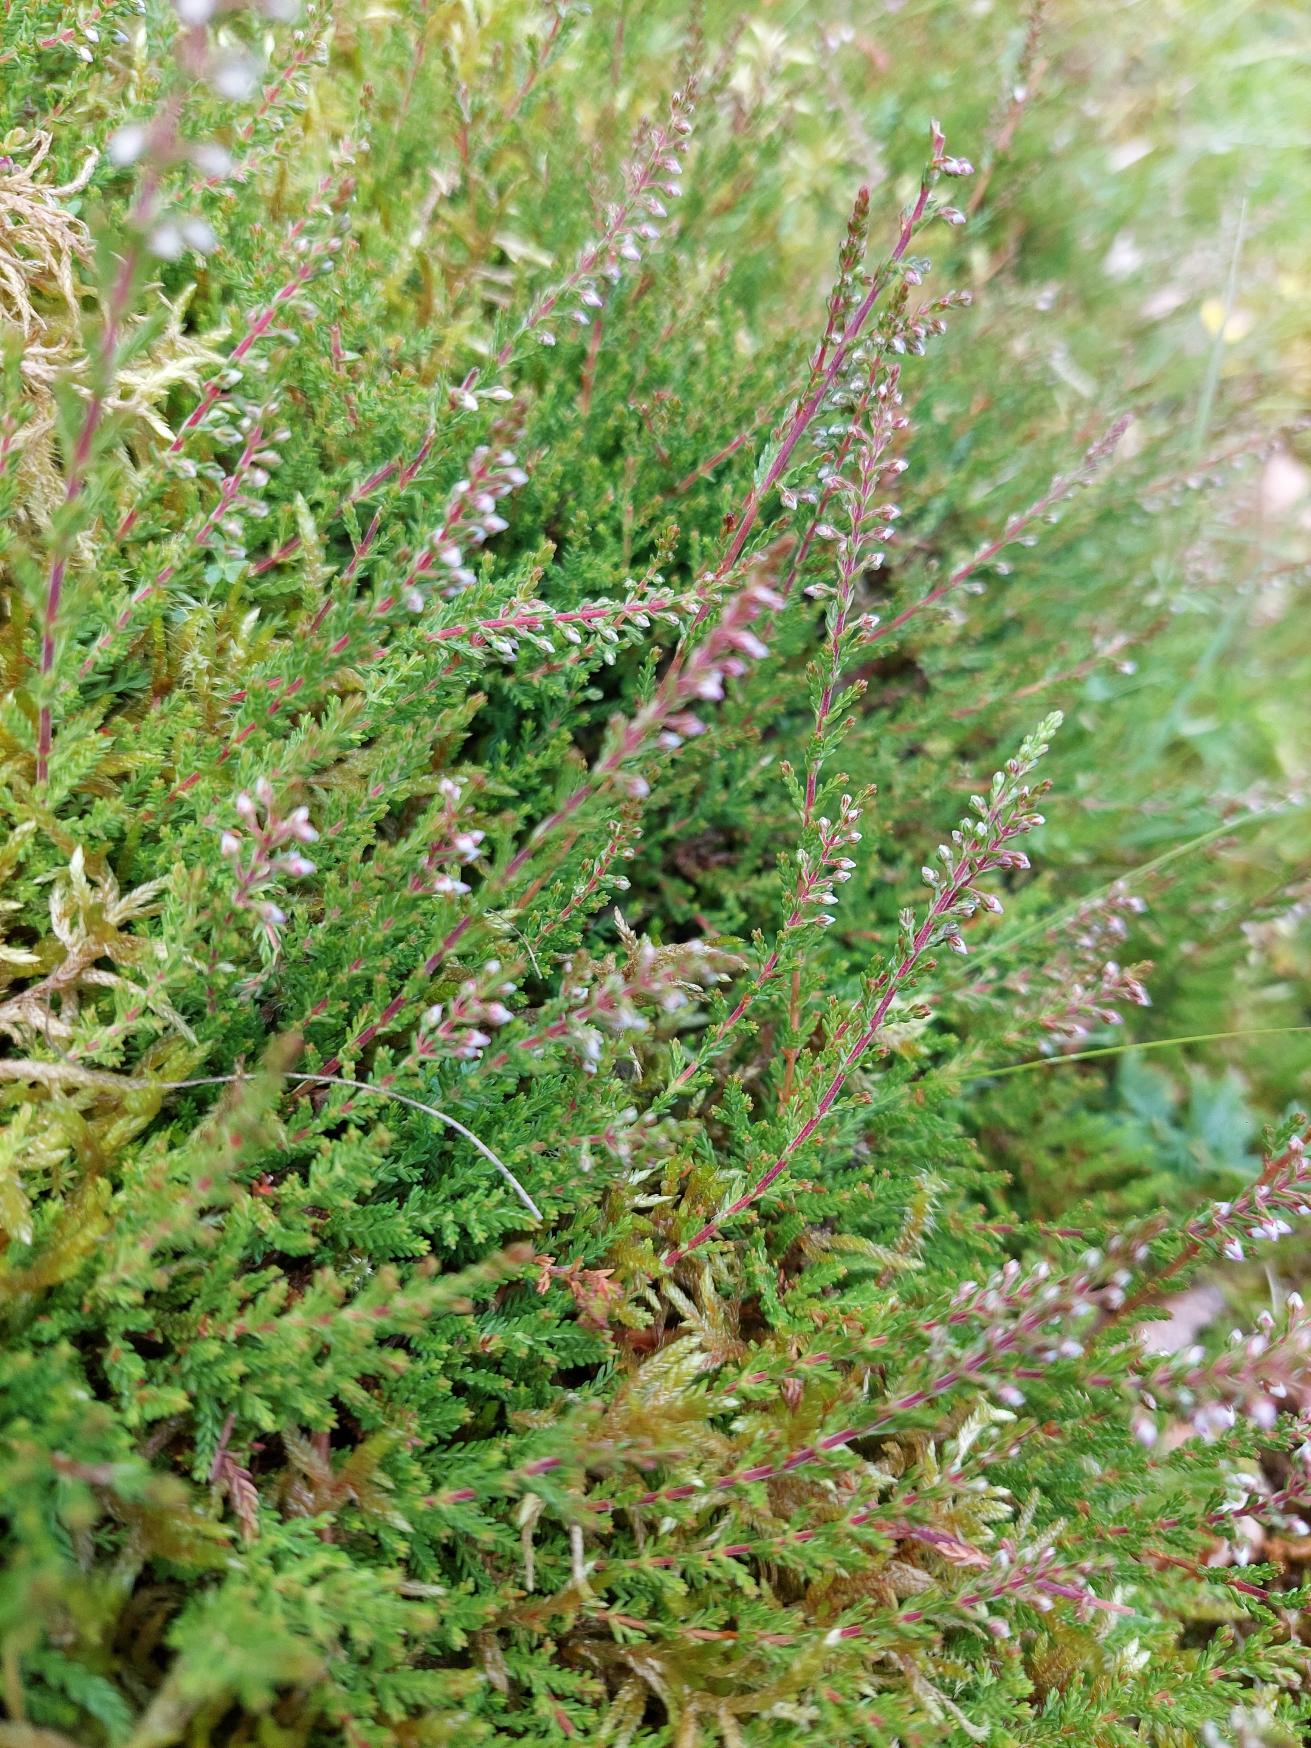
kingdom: Plantae
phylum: Tracheophyta
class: Magnoliopsida
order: Ericales
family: Ericaceae
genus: Calluna
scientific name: Calluna vulgaris
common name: Hedelyng
